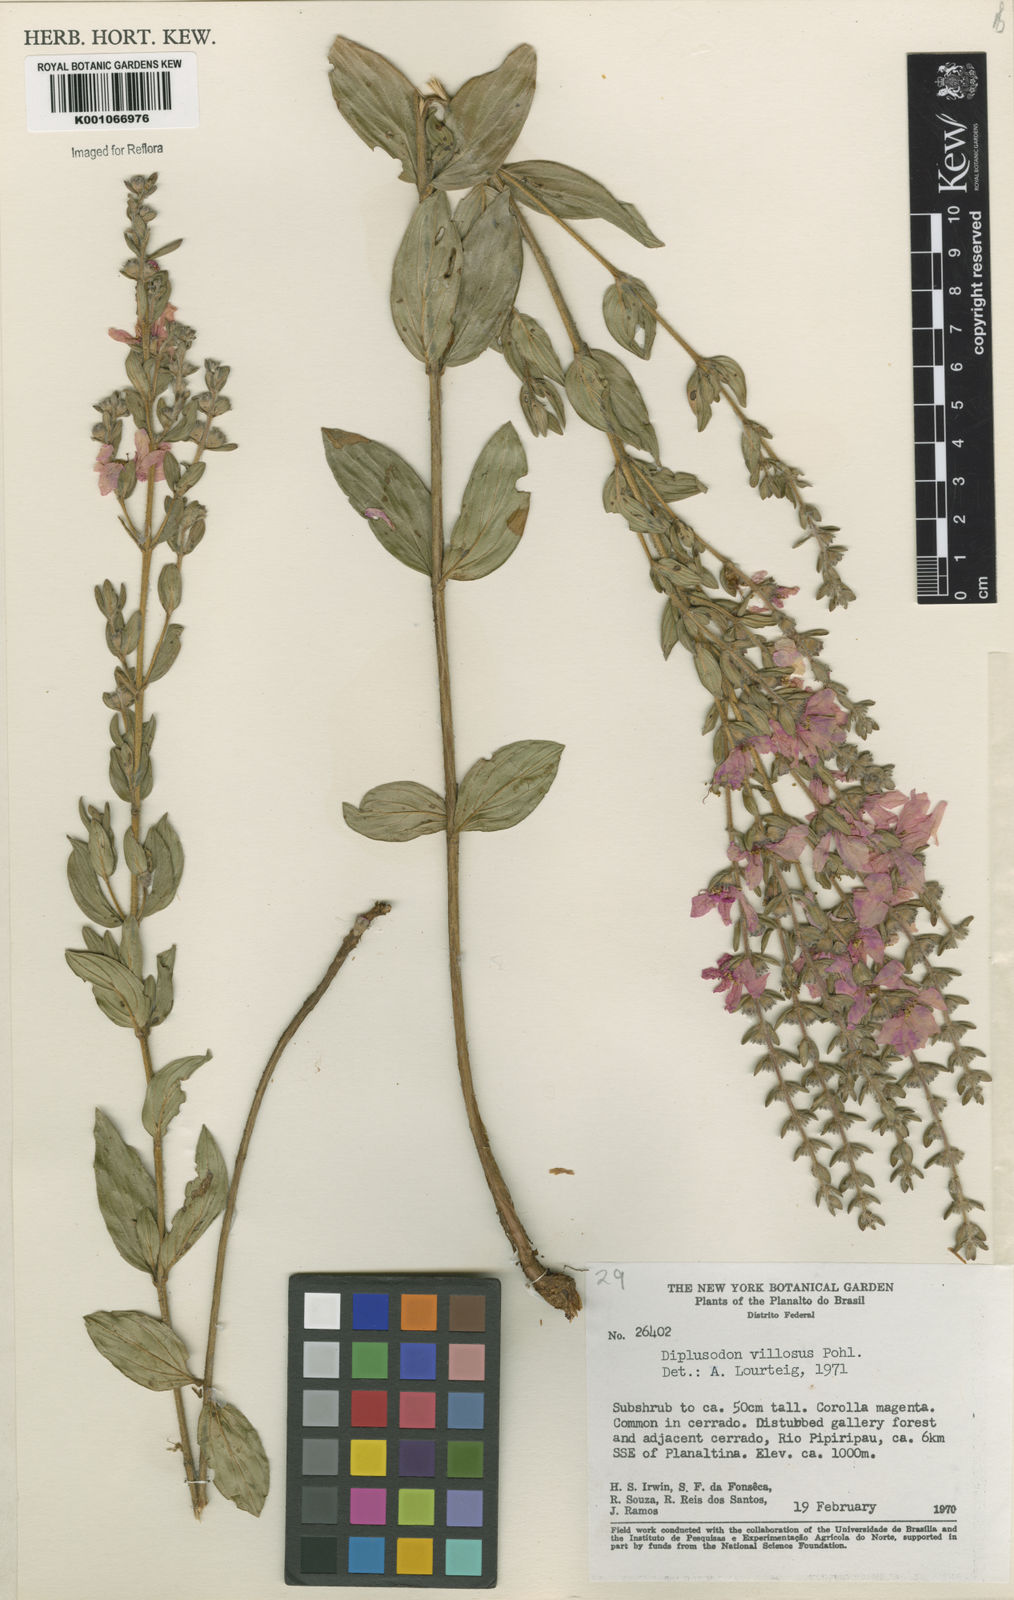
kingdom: Plantae
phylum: Tracheophyta
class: Magnoliopsida
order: Myrtales
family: Lythraceae
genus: Diplusodon
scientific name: Diplusodon villosus
